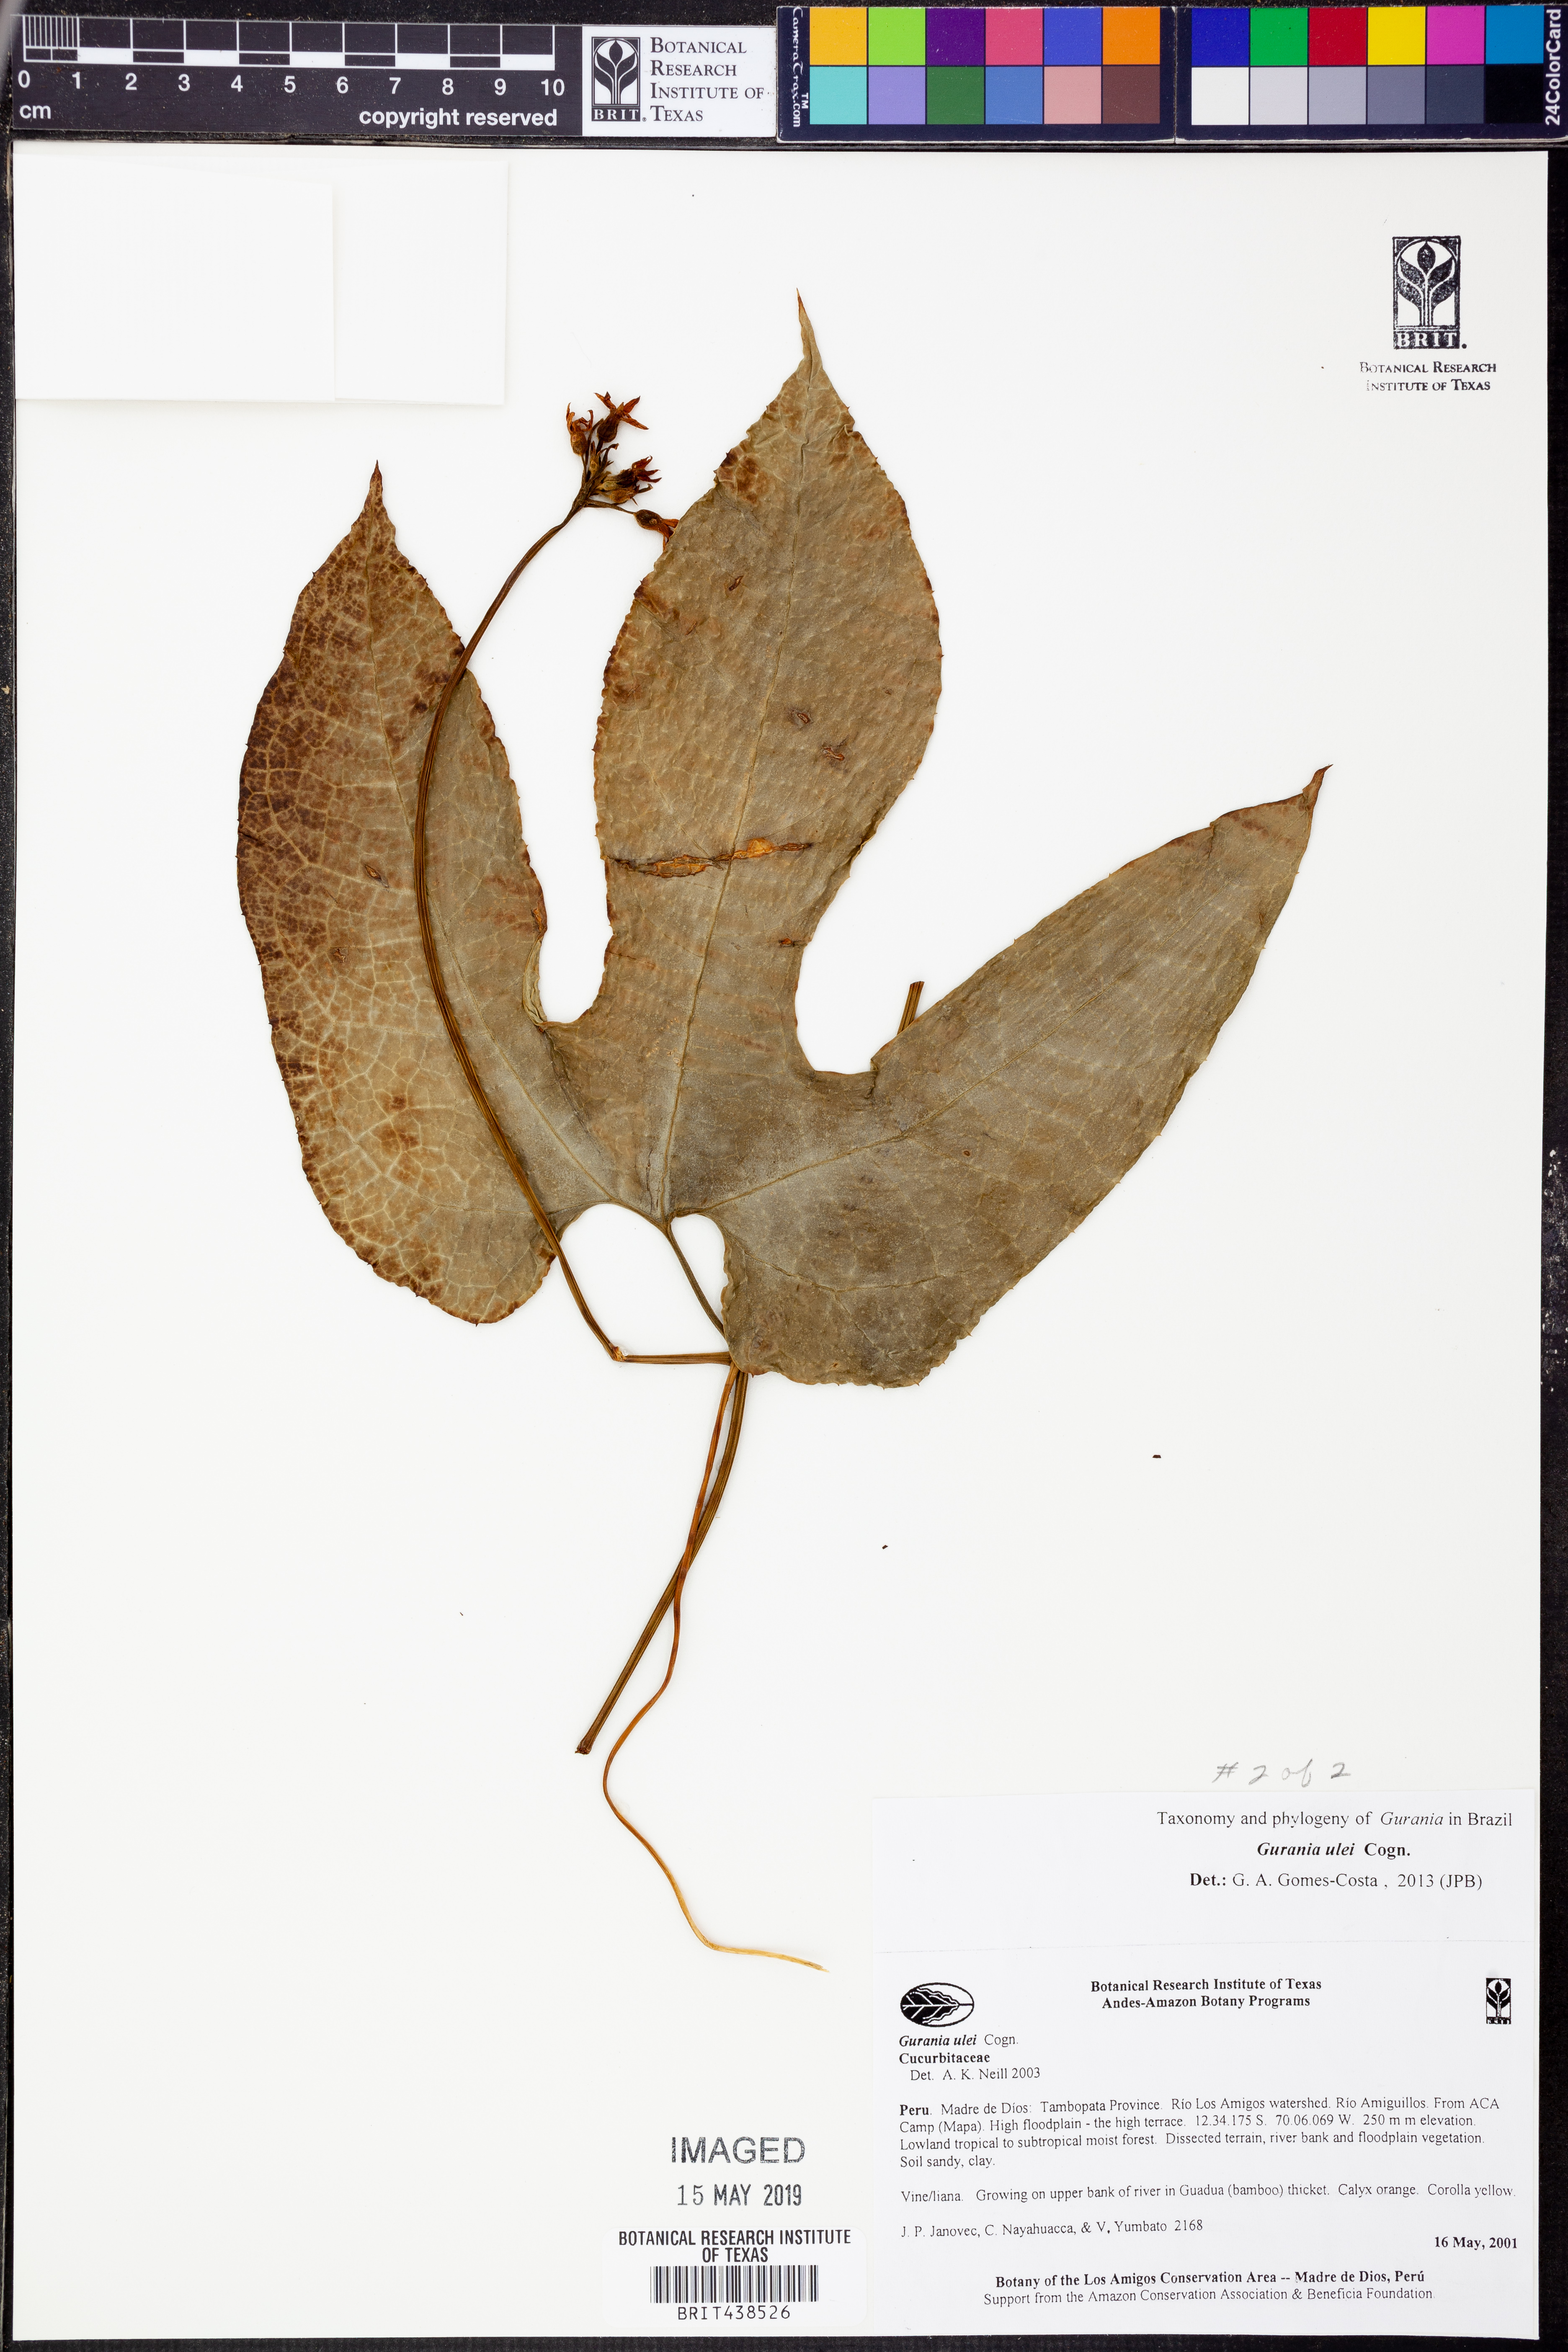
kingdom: Plantae
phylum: Tracheophyta
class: Magnoliopsida
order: Cucurbitales
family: Cucurbitaceae
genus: Gurania
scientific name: Gurania
